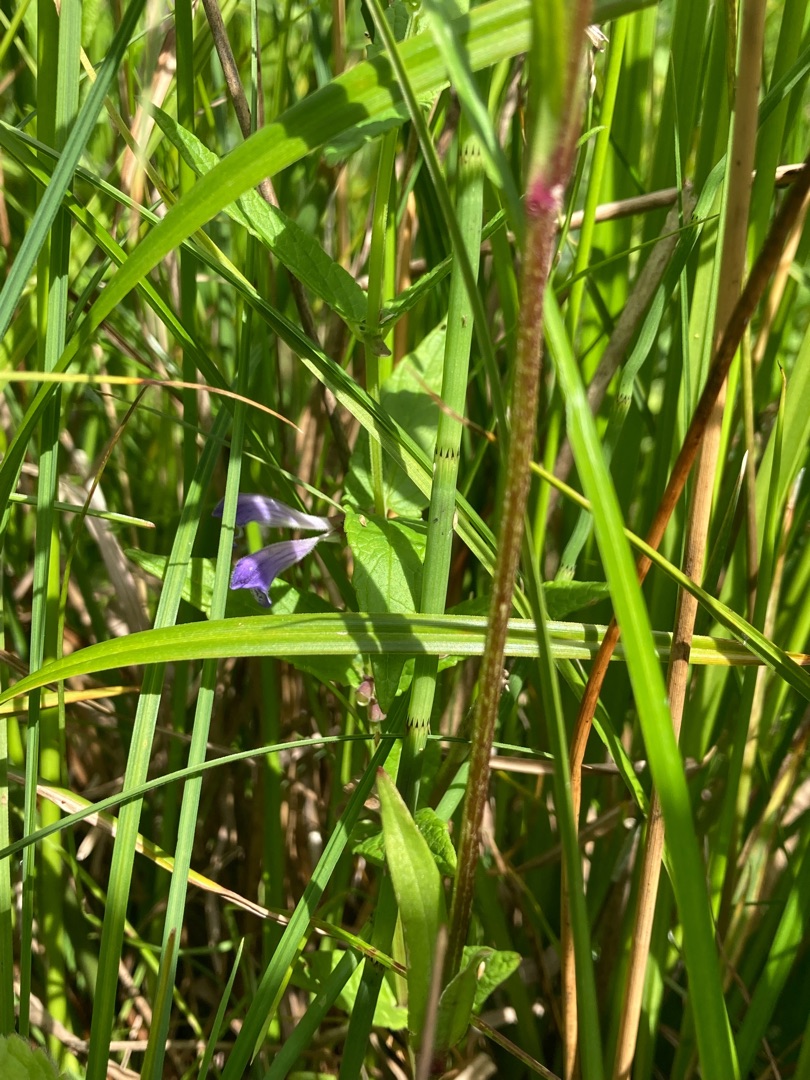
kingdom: Plantae
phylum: Tracheophyta
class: Magnoliopsida
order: Lamiales
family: Lamiaceae
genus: Scutellaria
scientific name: Scutellaria galericulata
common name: Almindelig skjolddrager
